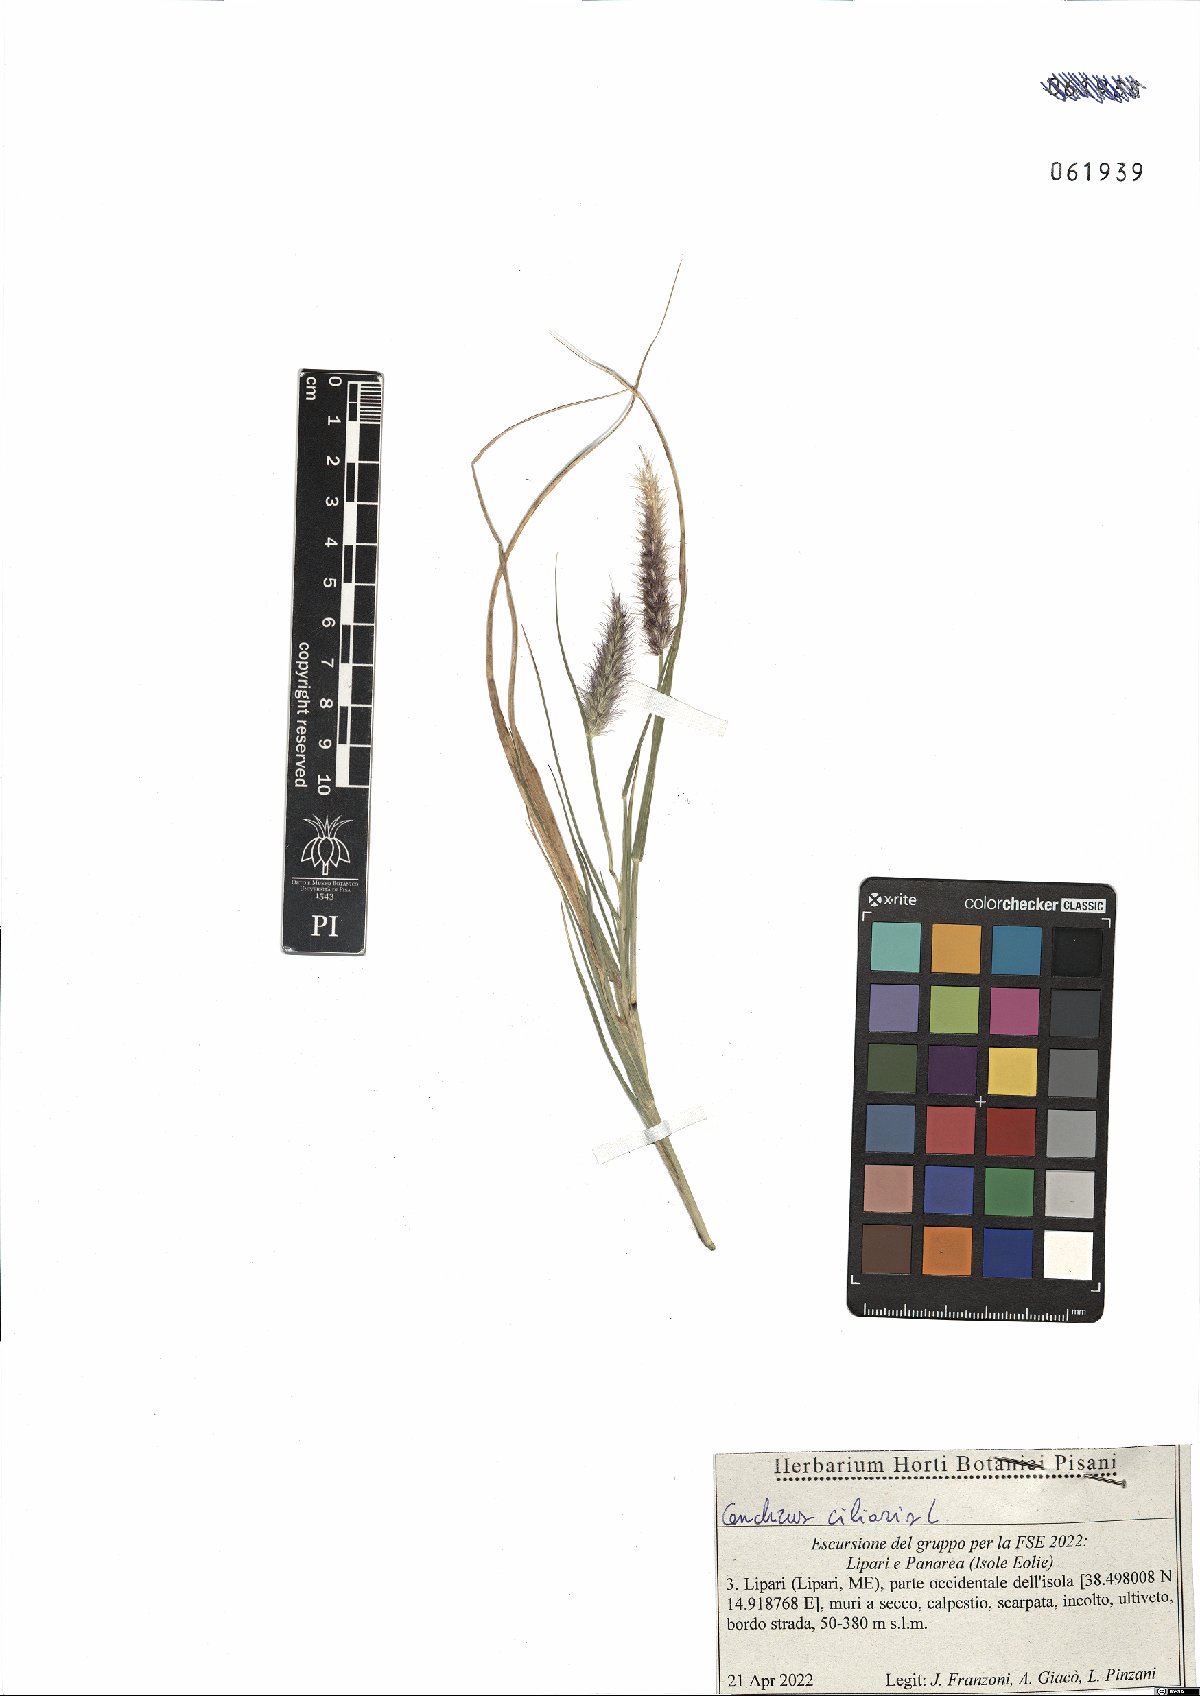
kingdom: Plantae
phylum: Tracheophyta
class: Liliopsida
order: Poales
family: Poaceae
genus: Cenchrus
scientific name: Cenchrus ciliaris
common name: Buffelgrass
